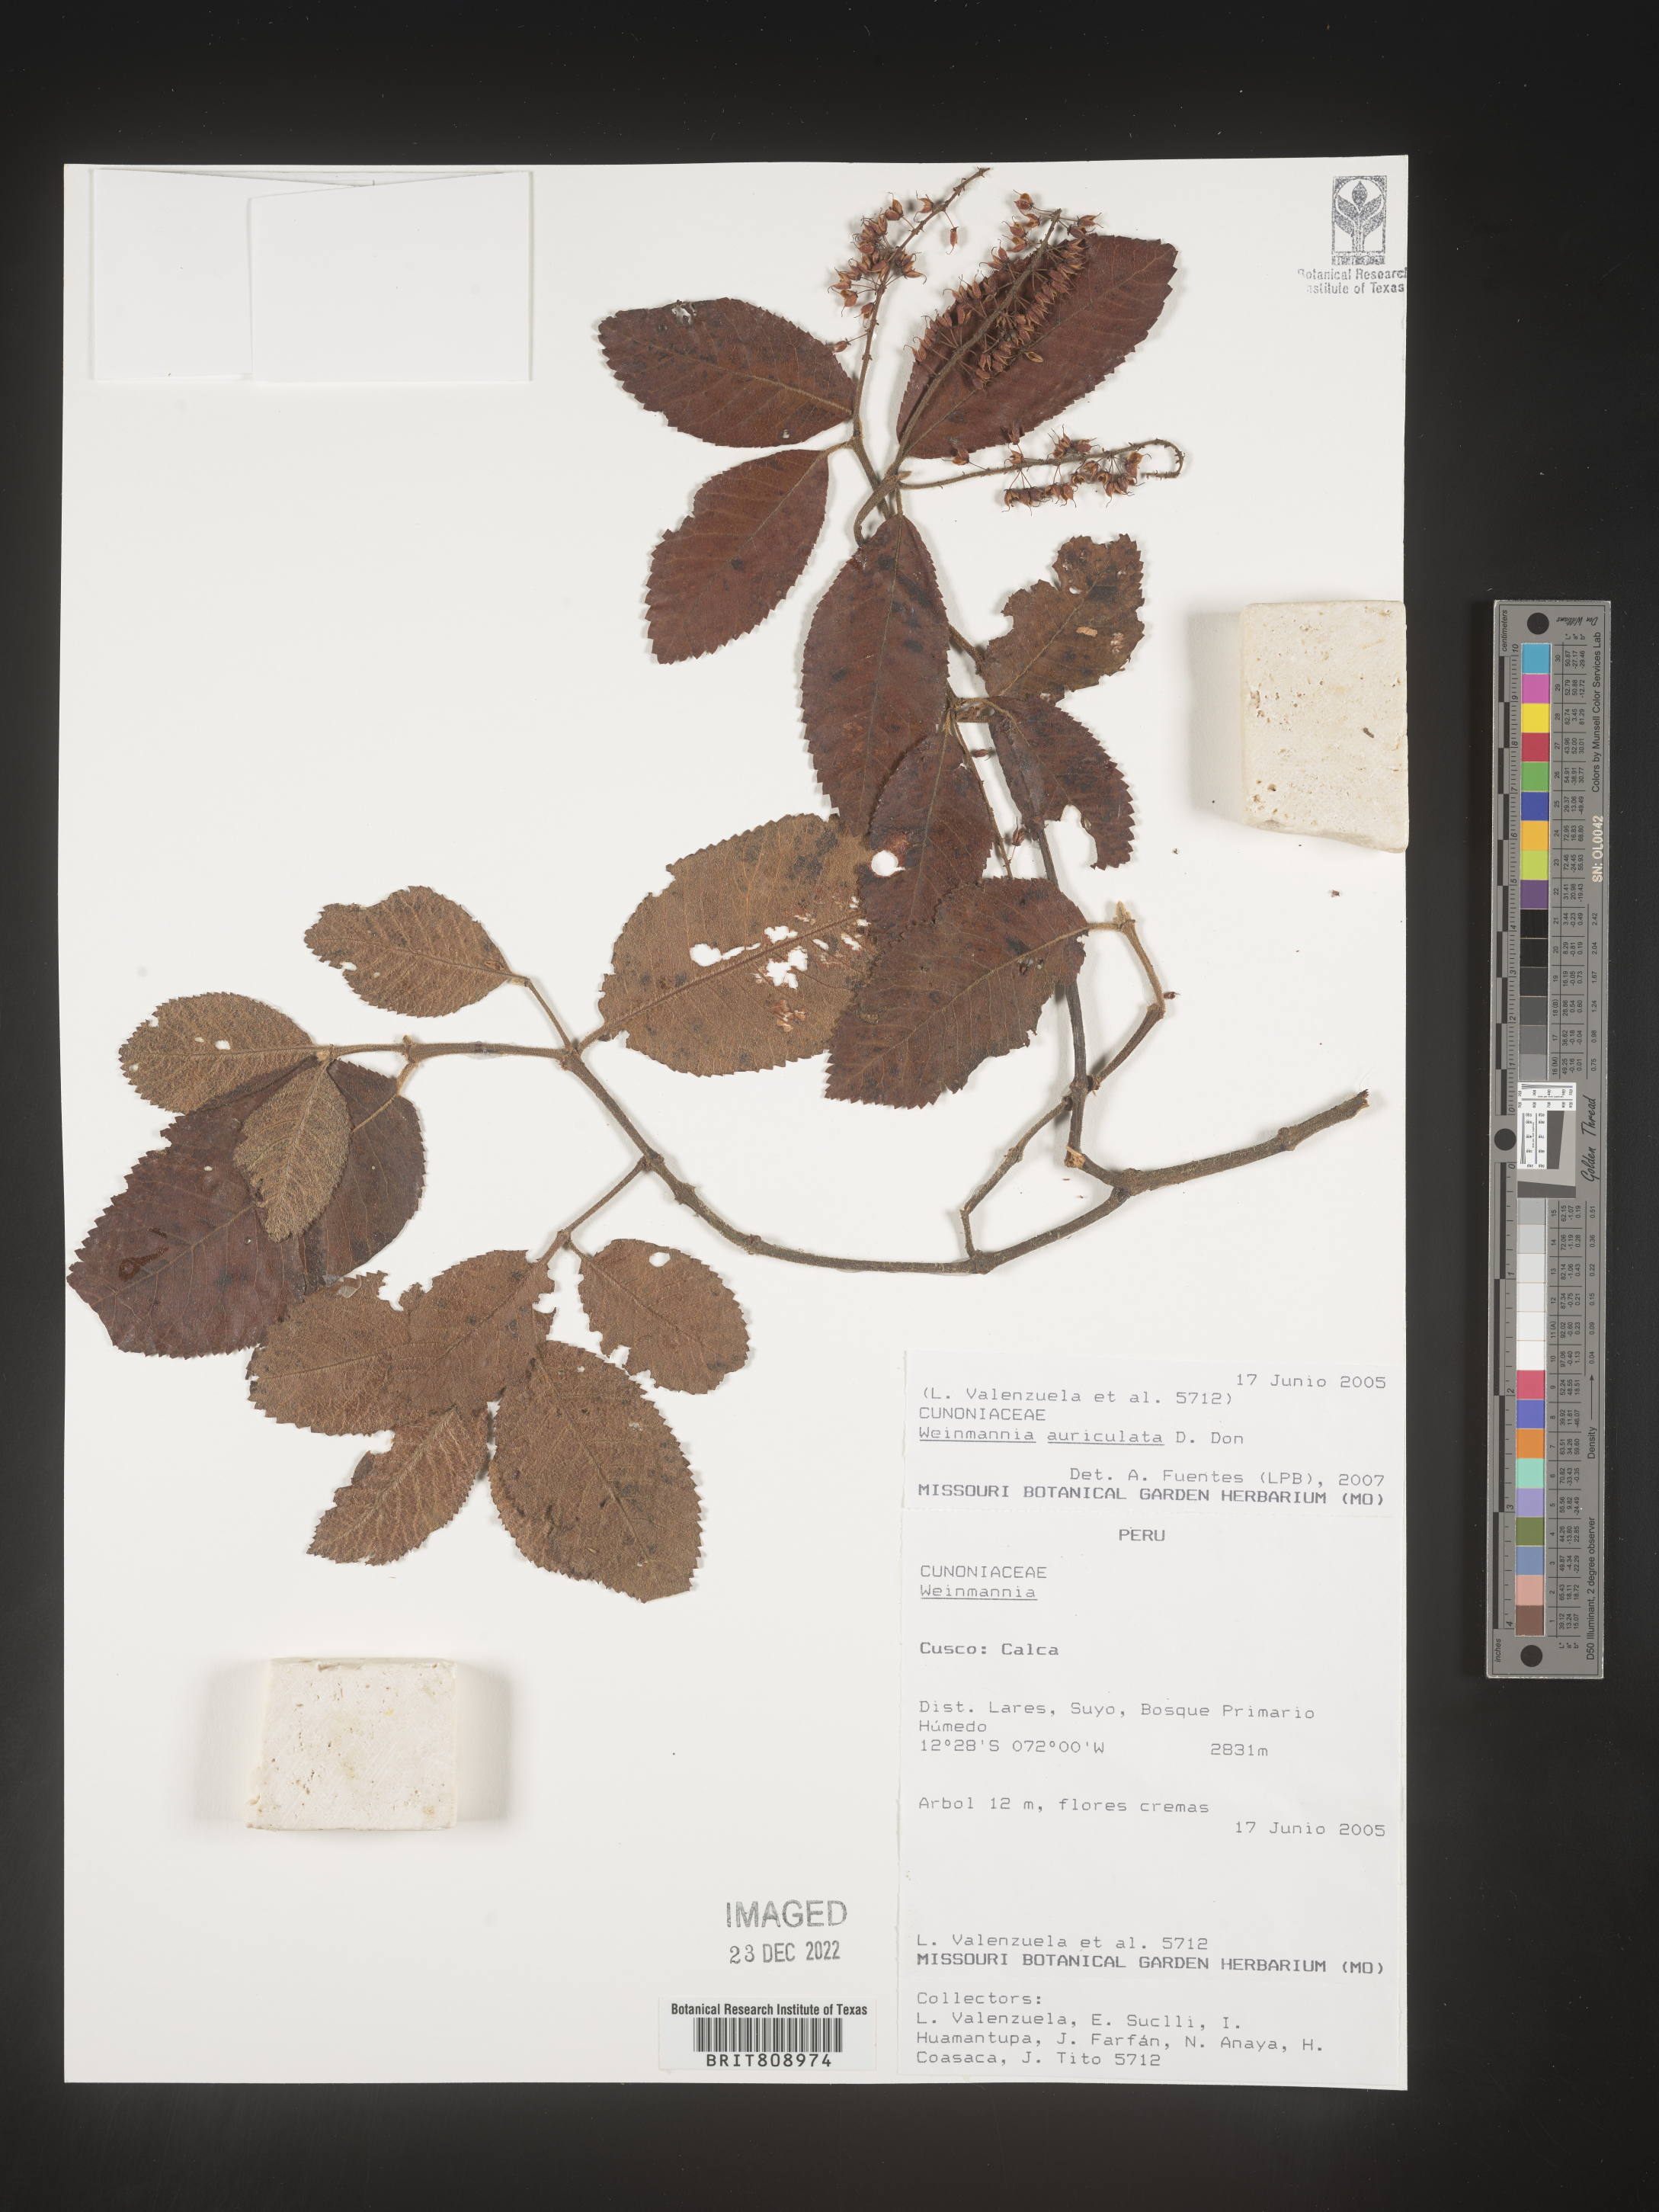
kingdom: Plantae
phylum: Tracheophyta
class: Magnoliopsida
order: Oxalidales
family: Cunoniaceae
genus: Weinmannia
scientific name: Weinmannia
